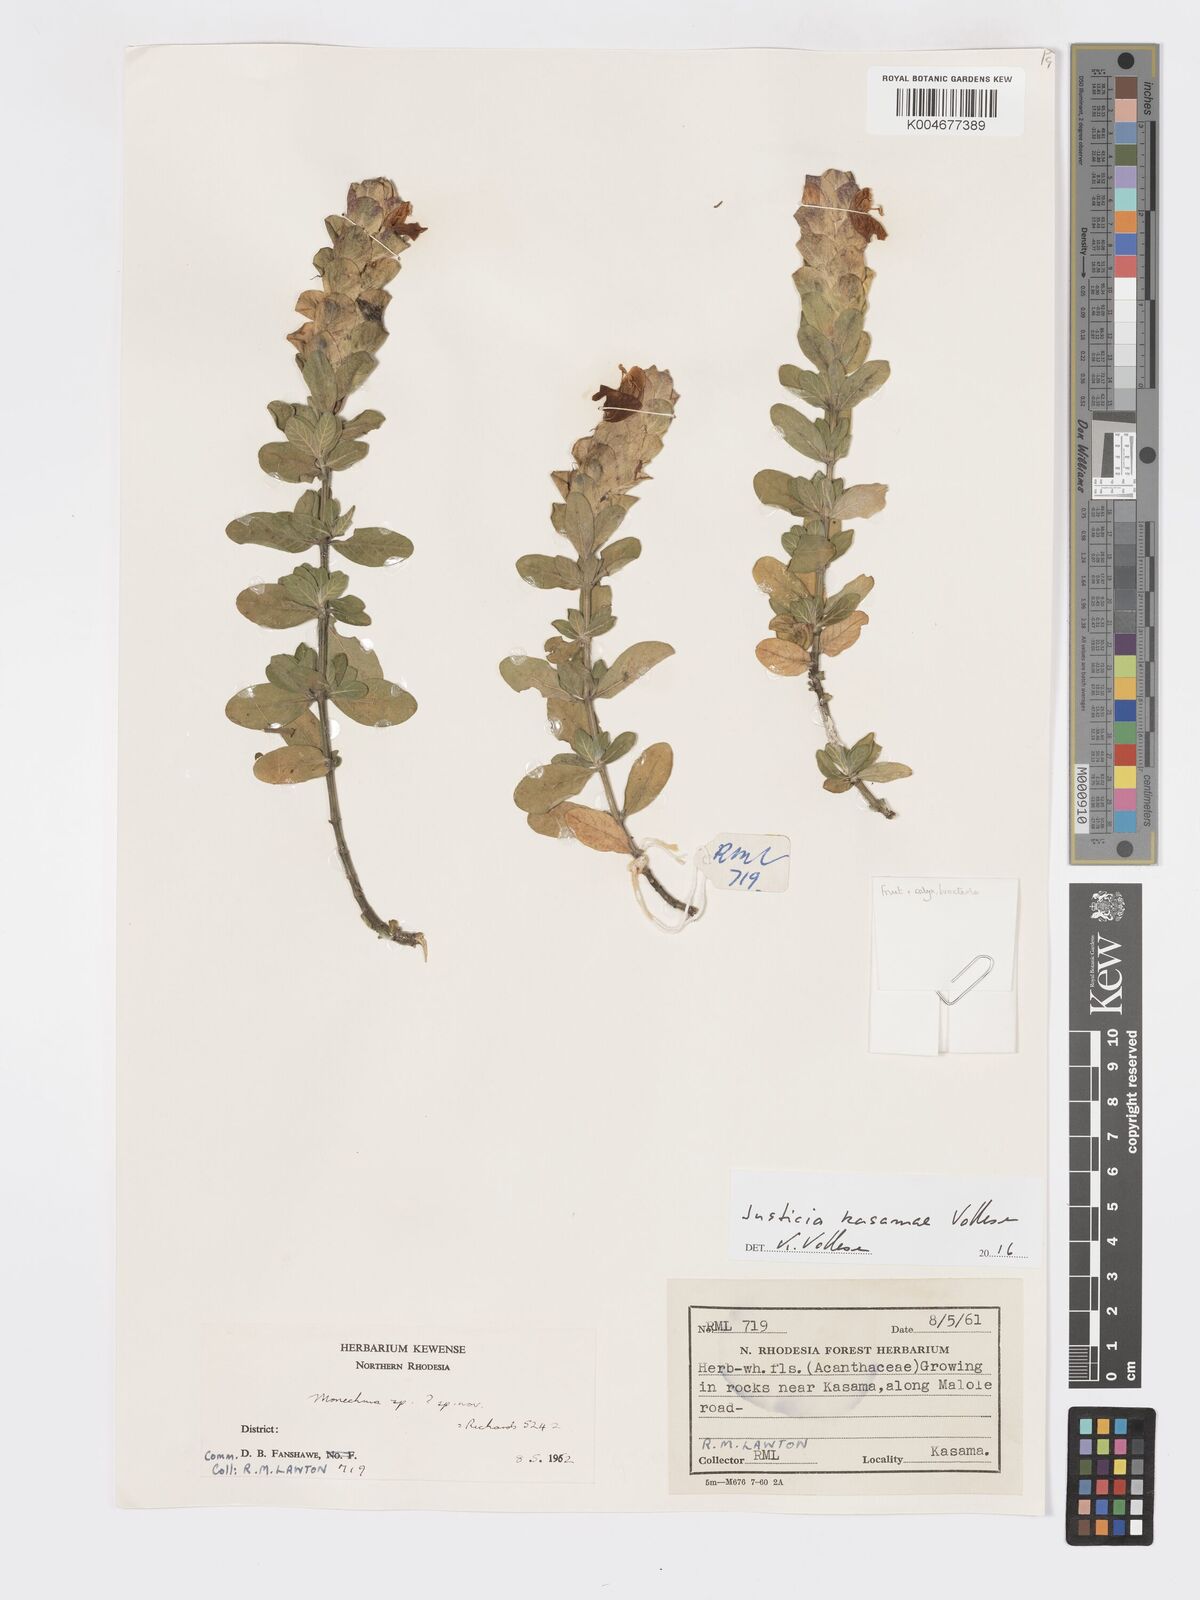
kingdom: Plantae
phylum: Tracheophyta
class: Magnoliopsida
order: Lamiales
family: Acanthaceae
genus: Pogonospermum
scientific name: Pogonospermum
